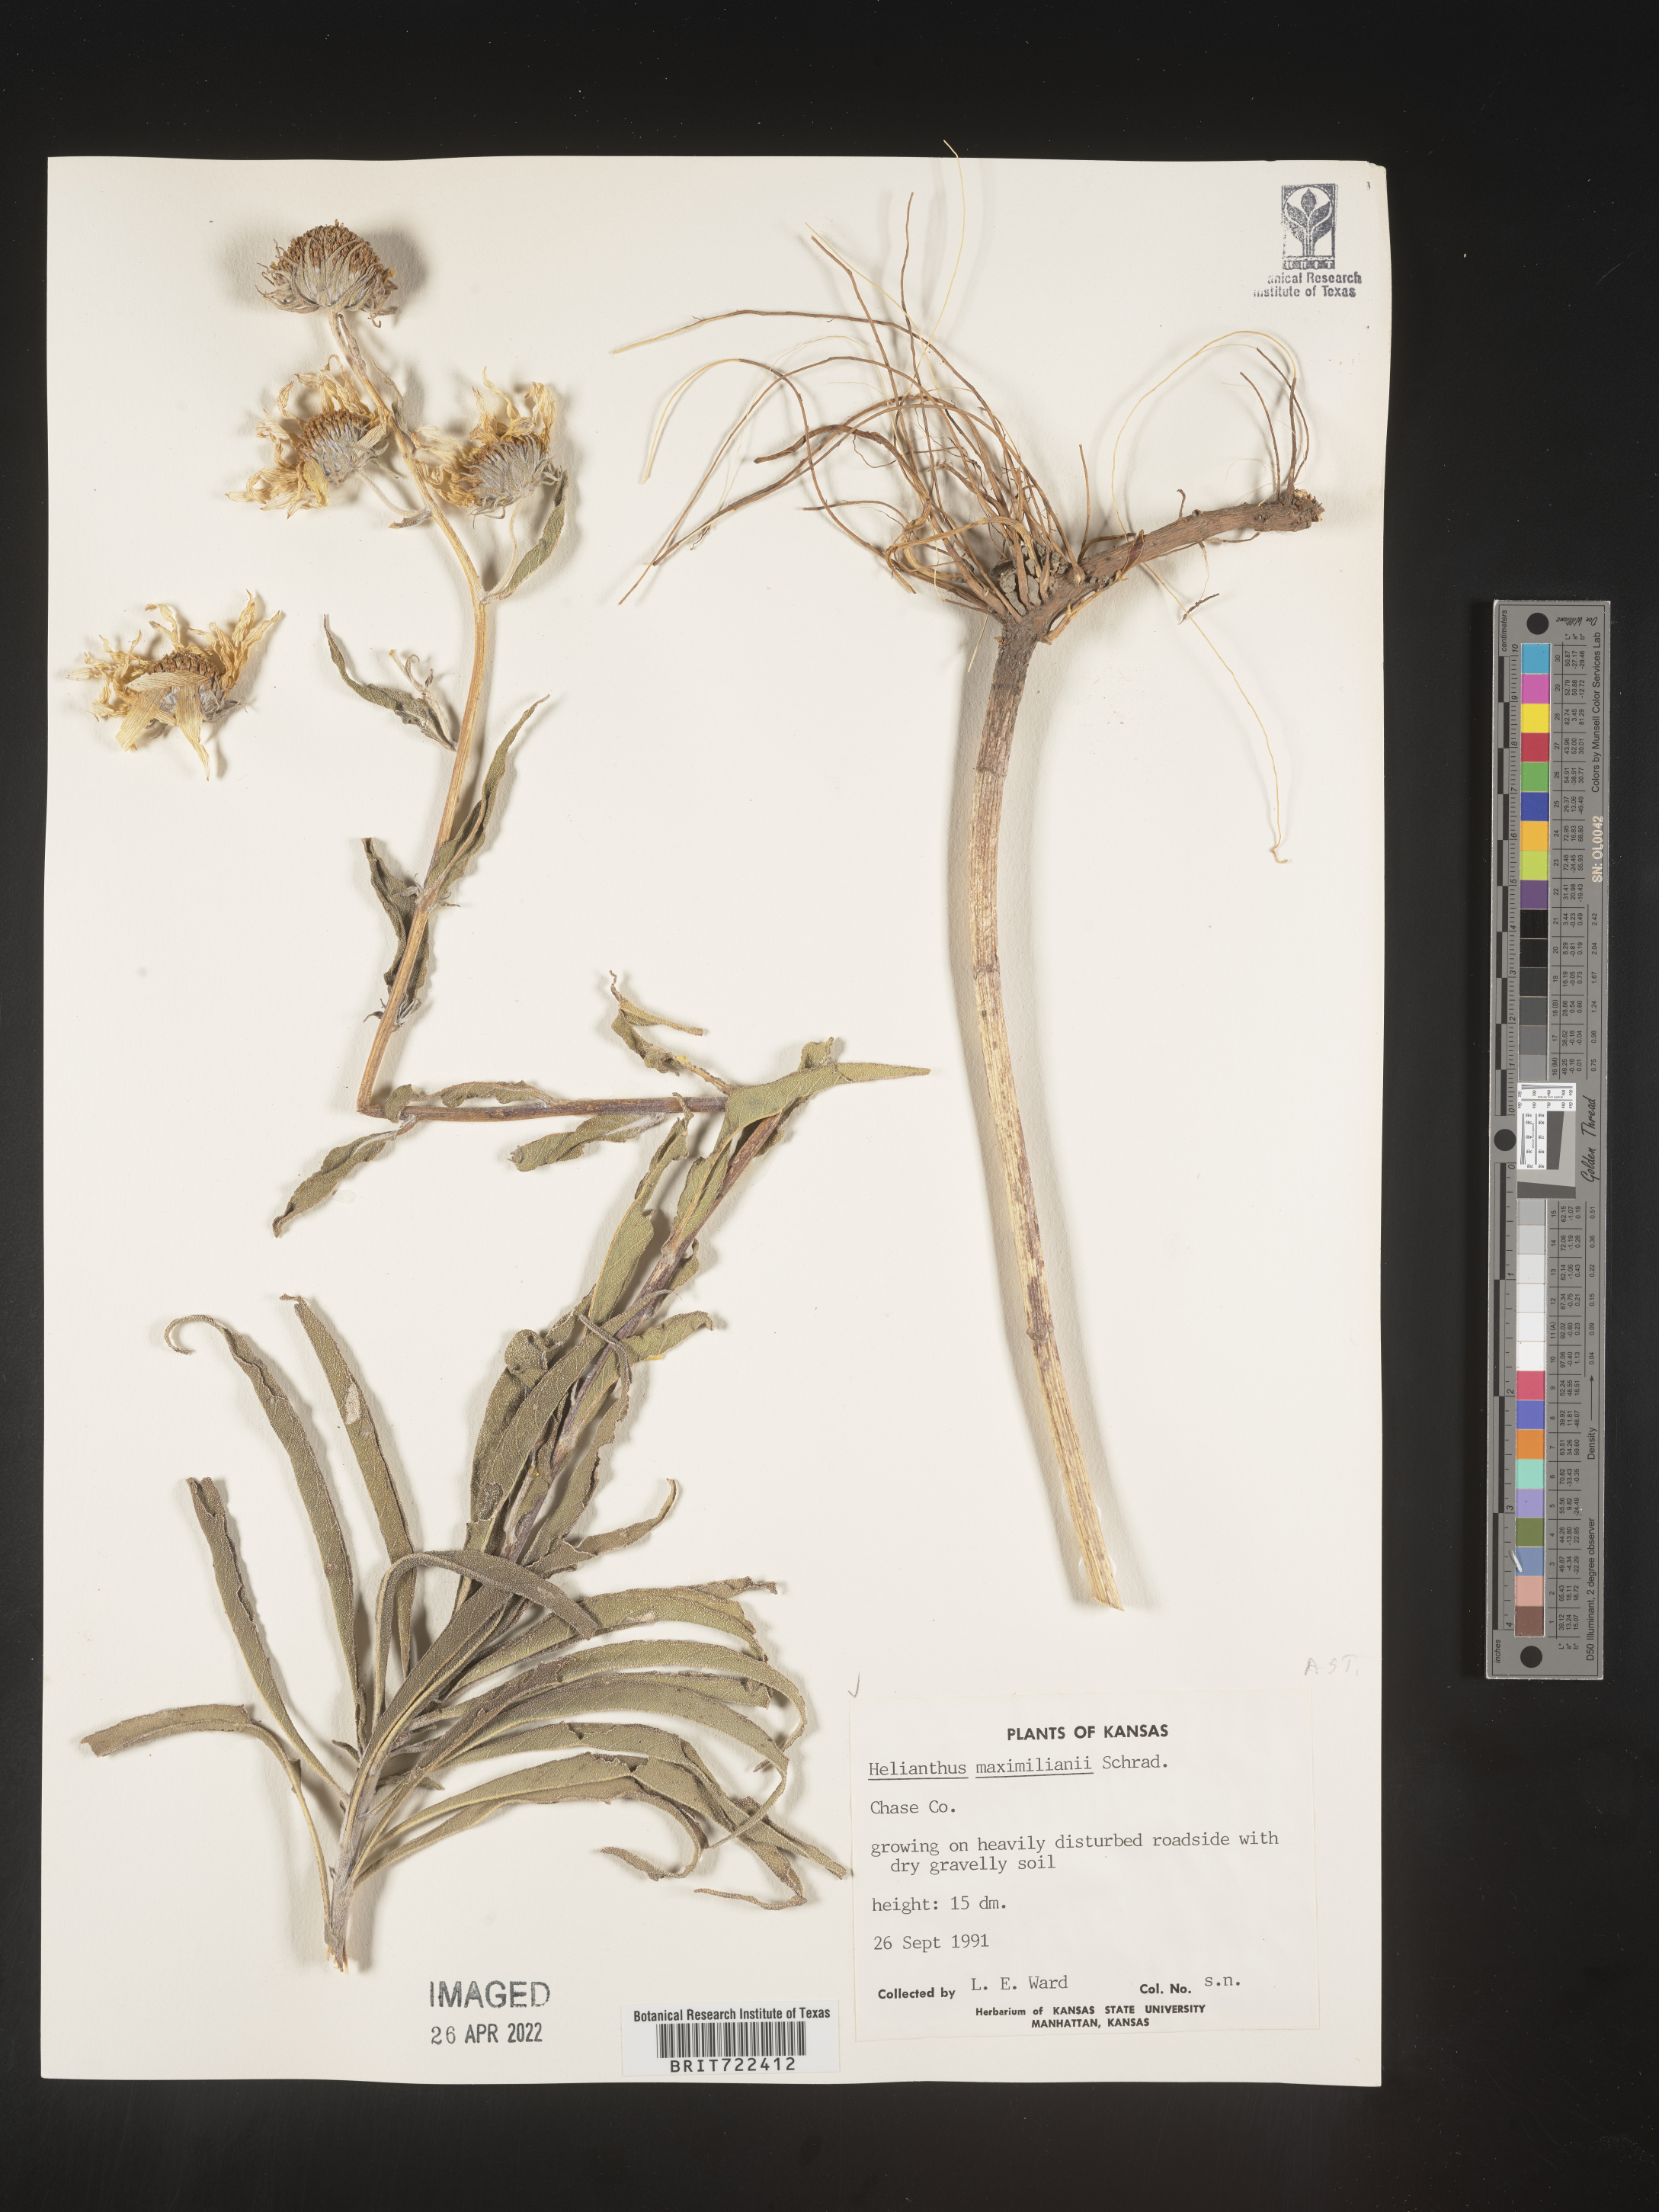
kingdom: Plantae
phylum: Tracheophyta
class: Magnoliopsida
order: Asterales
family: Asteraceae
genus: Helianthus
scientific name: Helianthus maximiliani
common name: Maximilian's sunflower
